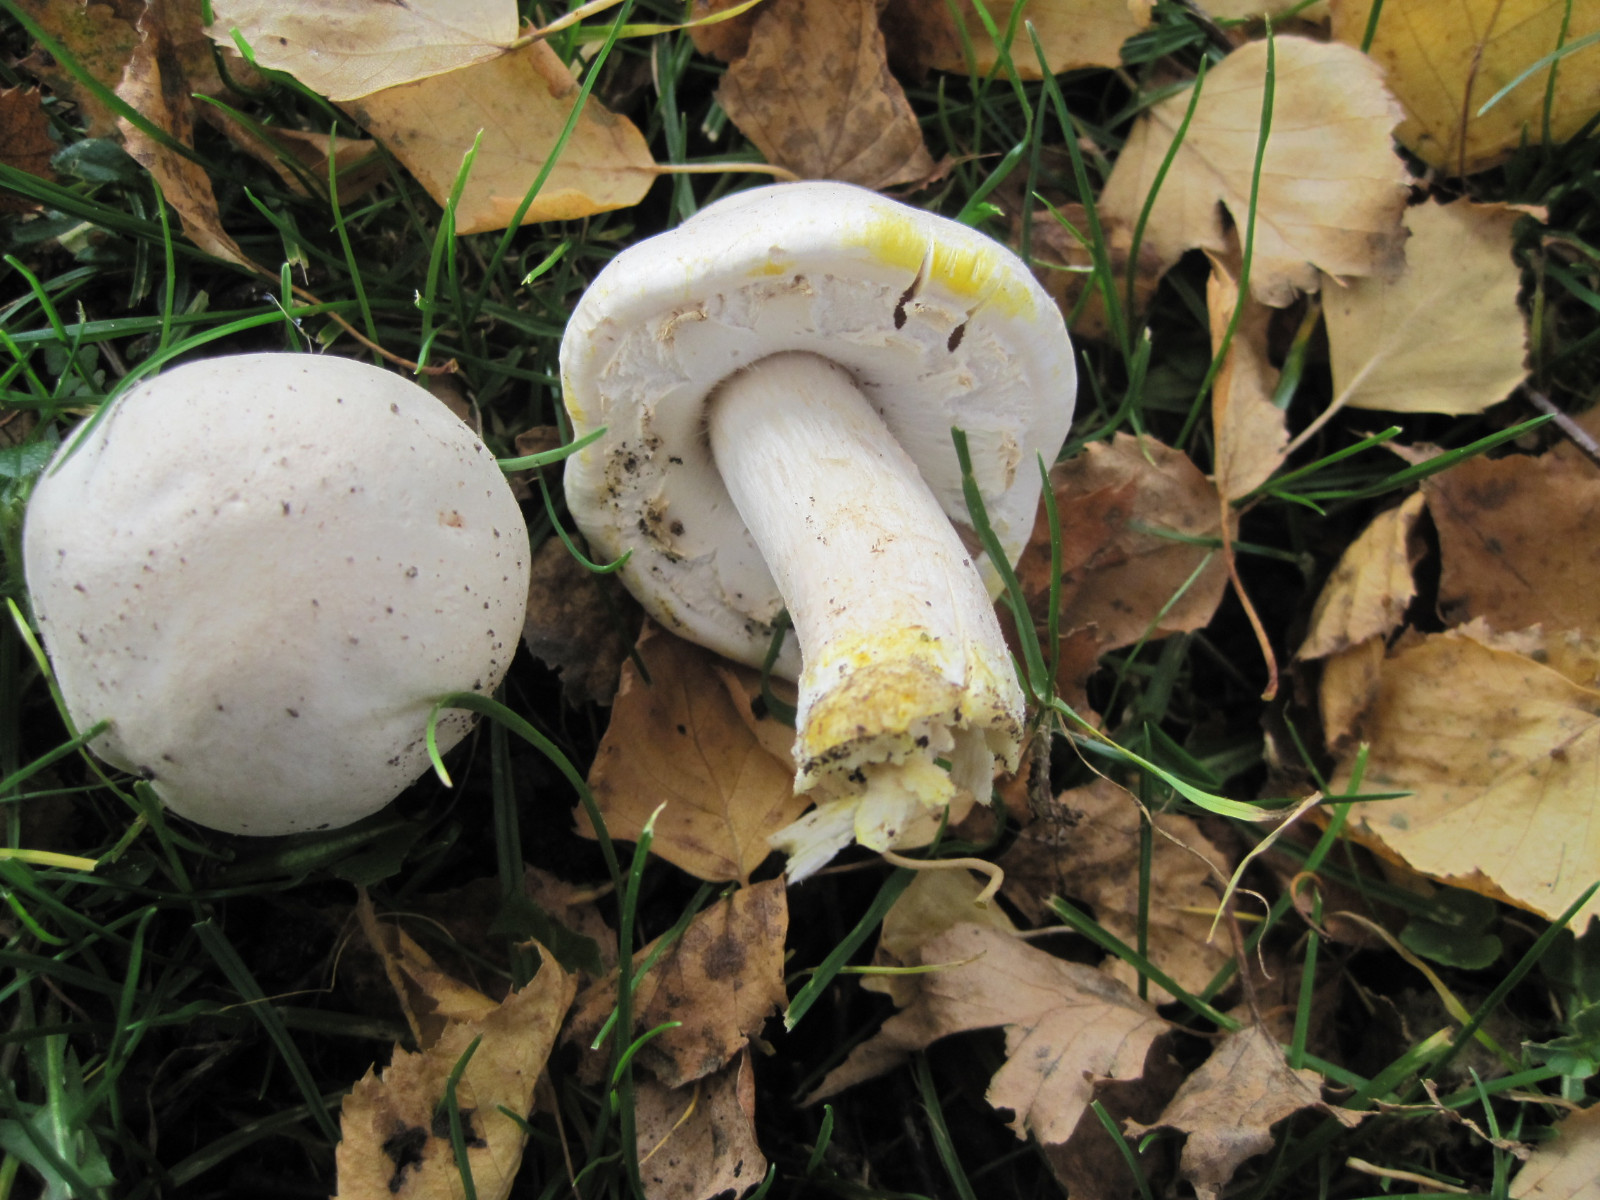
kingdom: Fungi
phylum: Basidiomycota
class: Agaricomycetes
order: Agaricales
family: Agaricaceae
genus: Agaricus
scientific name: Agaricus xanthodermus
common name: karbol-champignon
